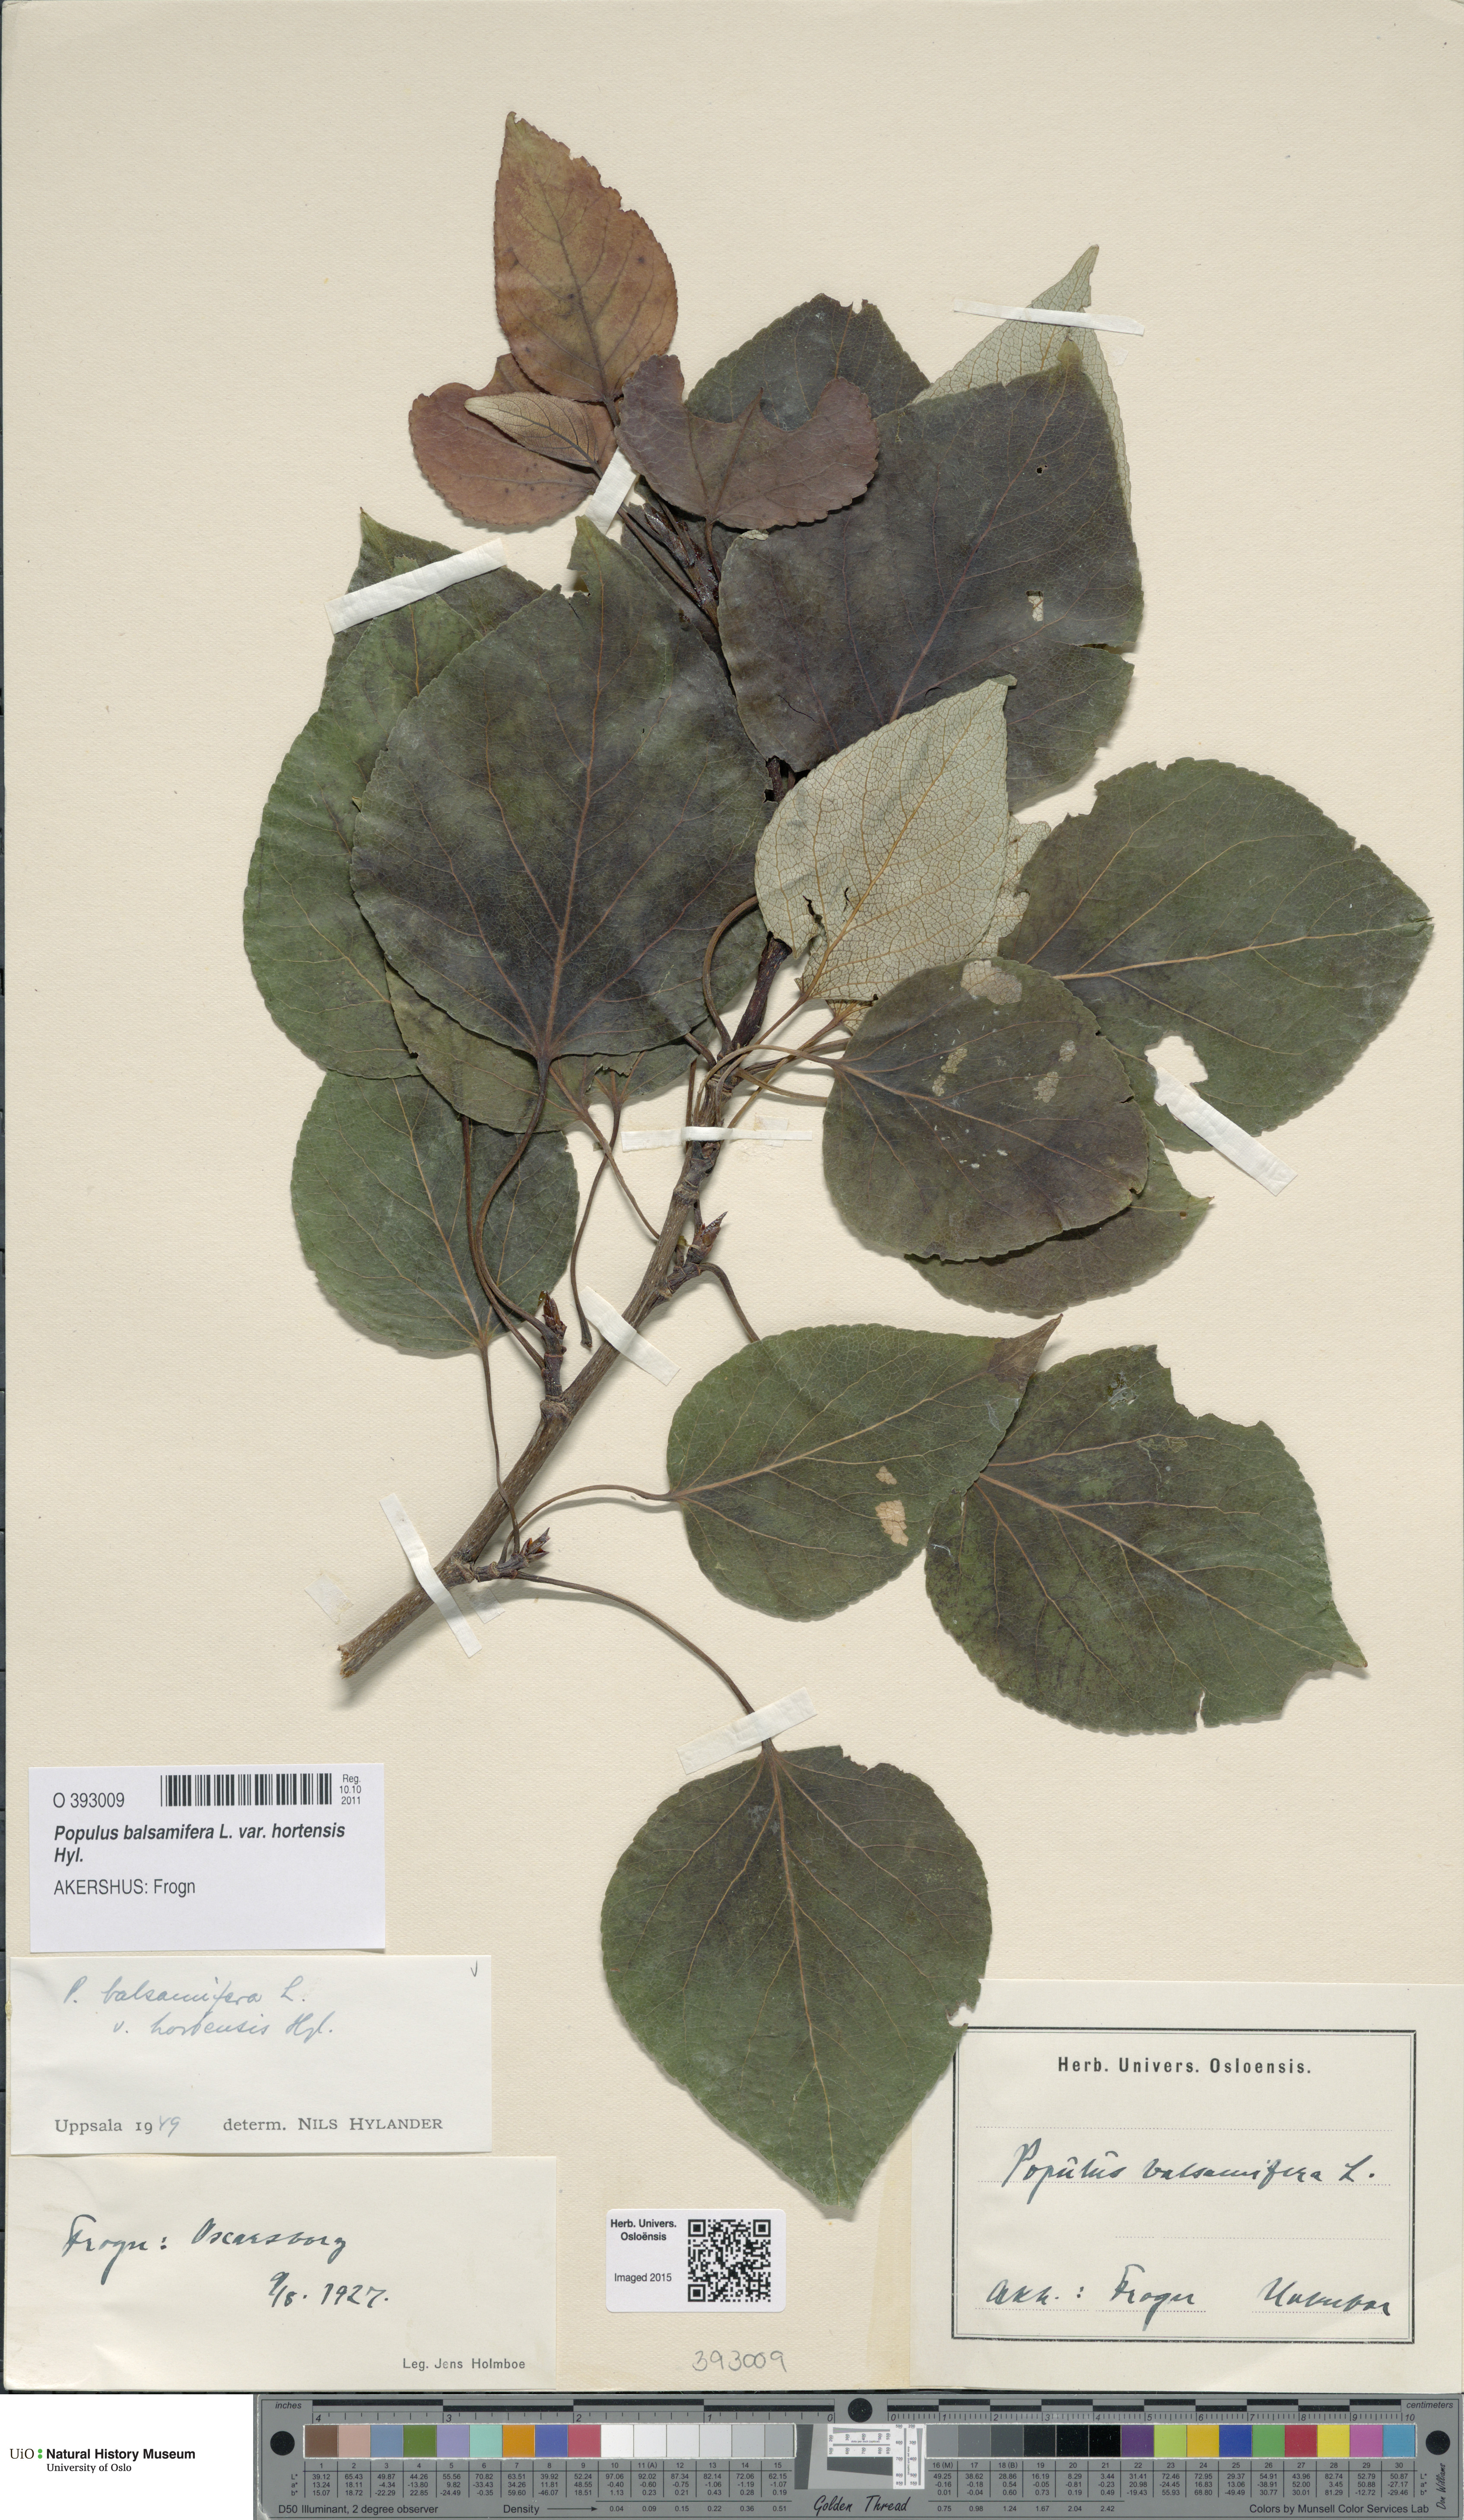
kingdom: Plantae
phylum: Tracheophyta
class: Magnoliopsida
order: Malpighiales
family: Salicaceae
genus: Populus
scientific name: Populus balsamifera
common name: Balsam poplar
